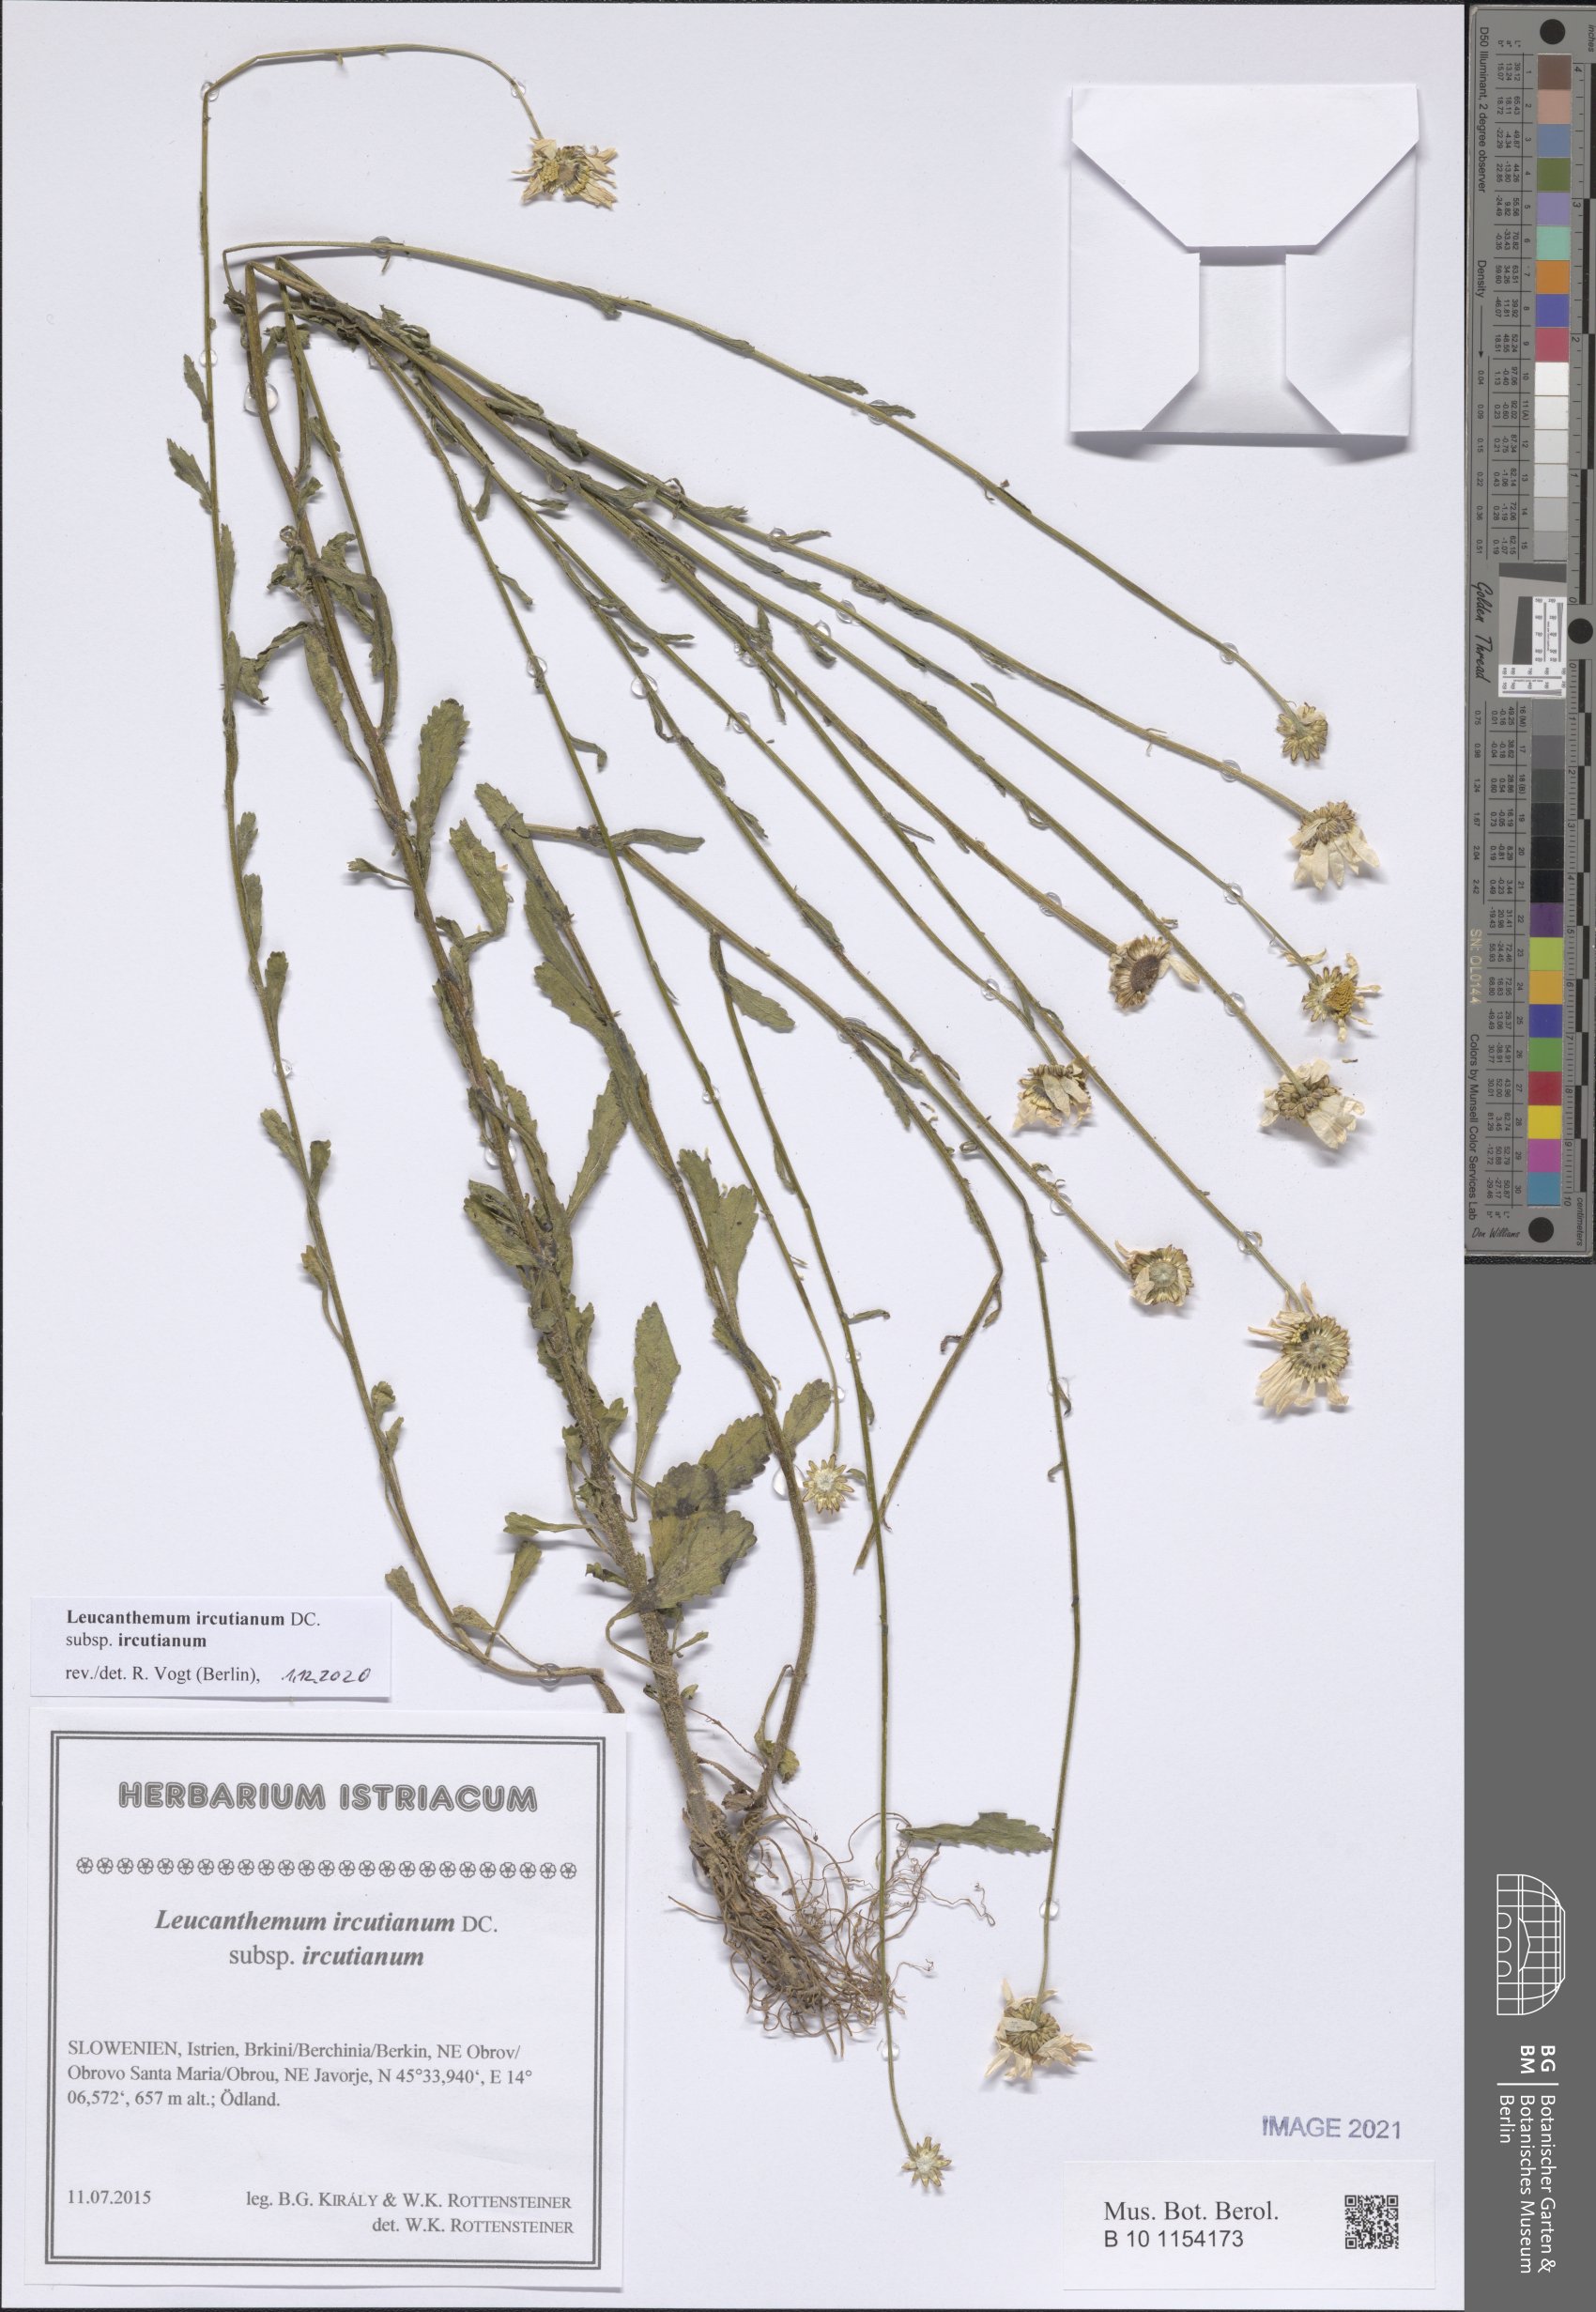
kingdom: Plantae
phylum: Tracheophyta
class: Magnoliopsida
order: Asterales
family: Asteraceae
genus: Leucanthemum
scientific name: Leucanthemum ircutianum
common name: Daisy
